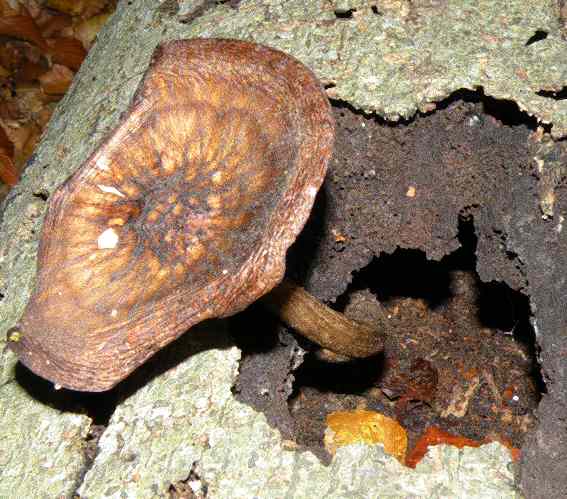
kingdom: Fungi
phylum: Basidiomycota
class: Agaricomycetes
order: Agaricales
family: Pluteaceae
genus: Pluteus
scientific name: Pluteus umbrosus
